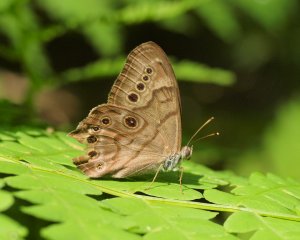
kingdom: Animalia
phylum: Arthropoda
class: Insecta
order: Lepidoptera
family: Nymphalidae
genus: Lethe
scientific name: Lethe anthedon
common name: Northern Pearly-Eye
